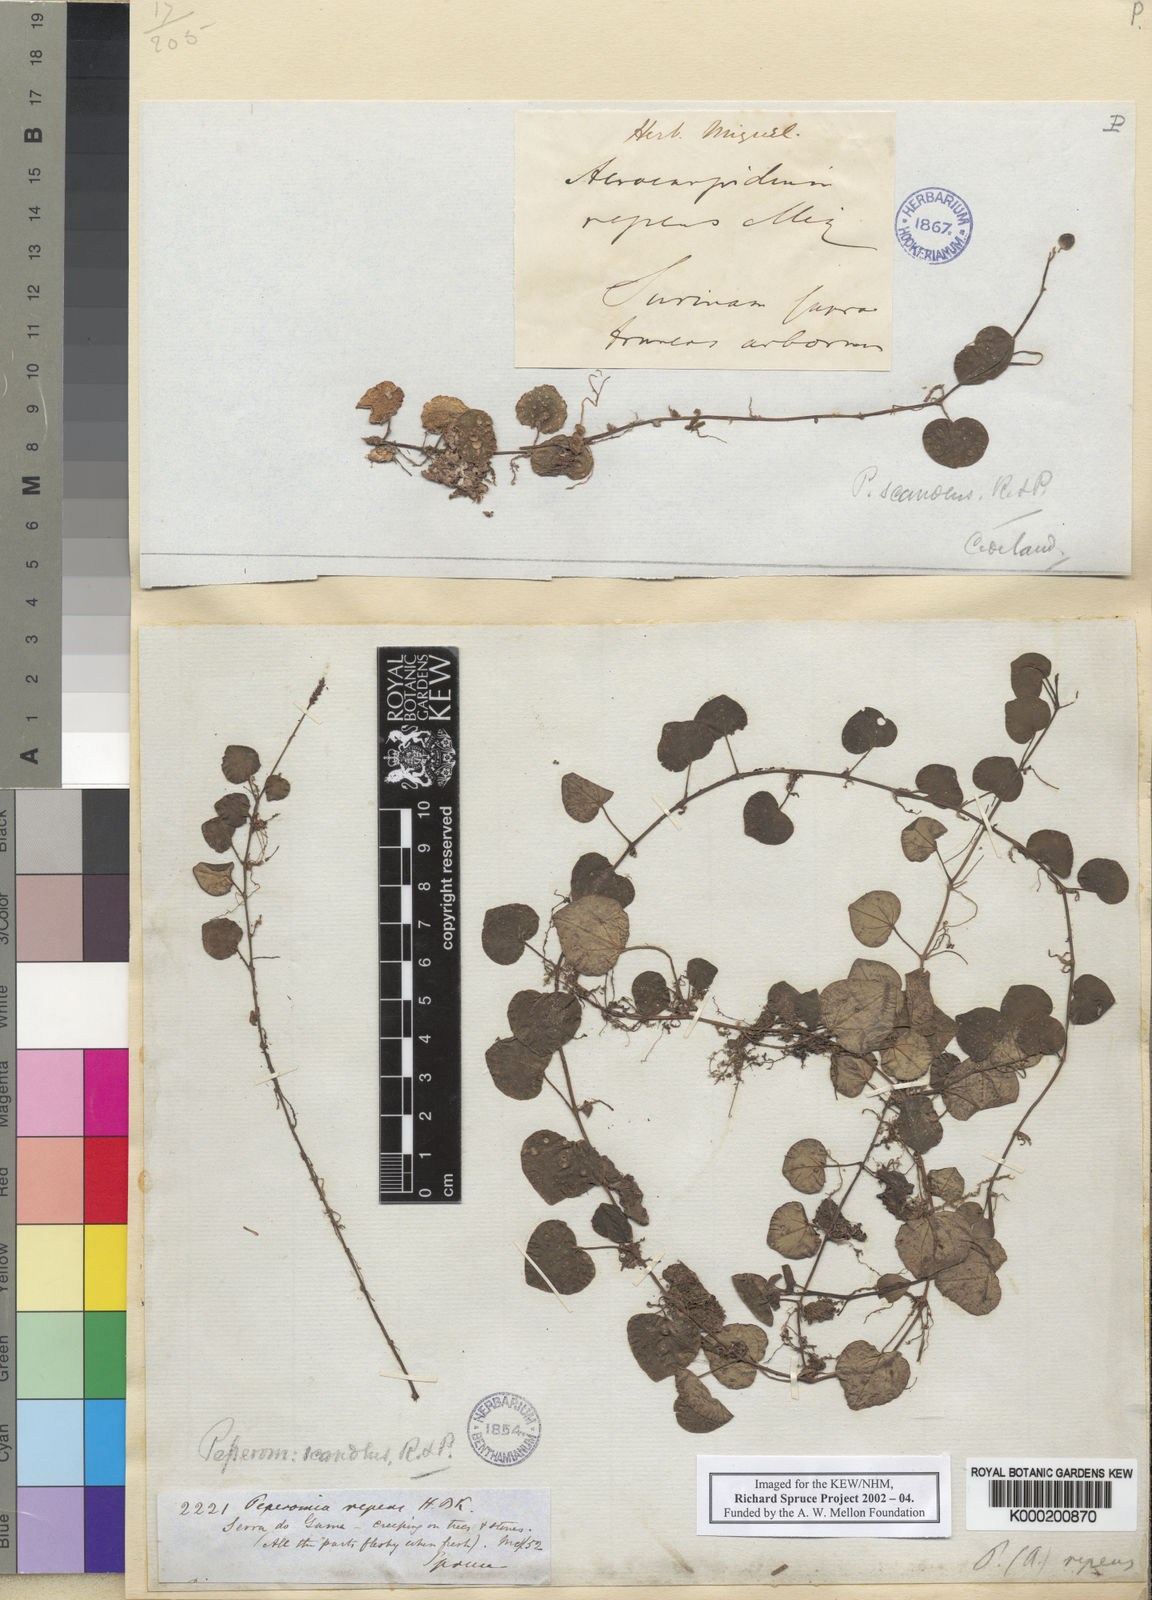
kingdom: Plantae
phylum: Tracheophyta
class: Magnoliopsida
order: Piperales
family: Piperaceae
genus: Peperomia
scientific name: Peperomia serpens
